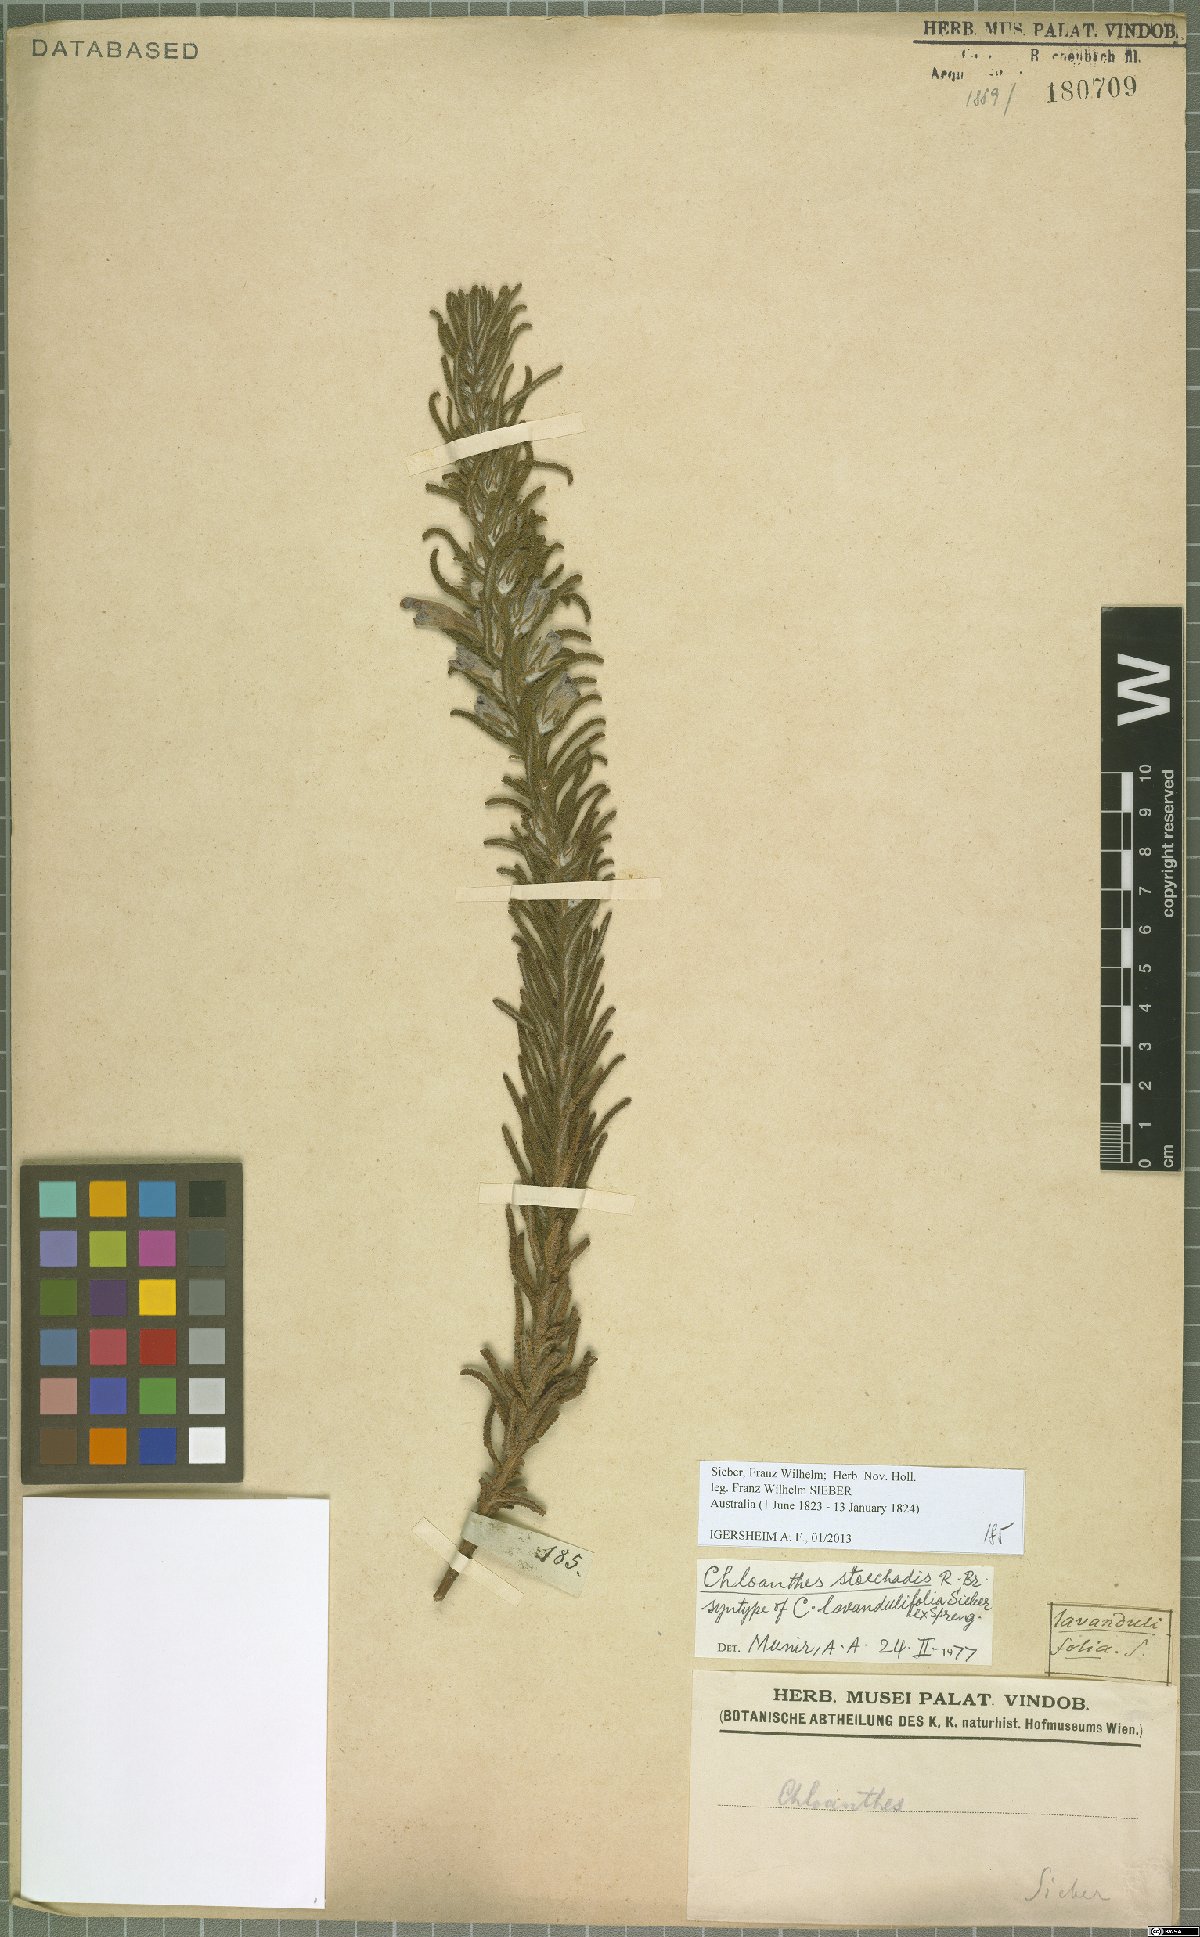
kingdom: Plantae
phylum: Tracheophyta
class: Magnoliopsida
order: Lamiales
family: Lamiaceae
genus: Chloanthes
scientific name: Chloanthes stoechadis
